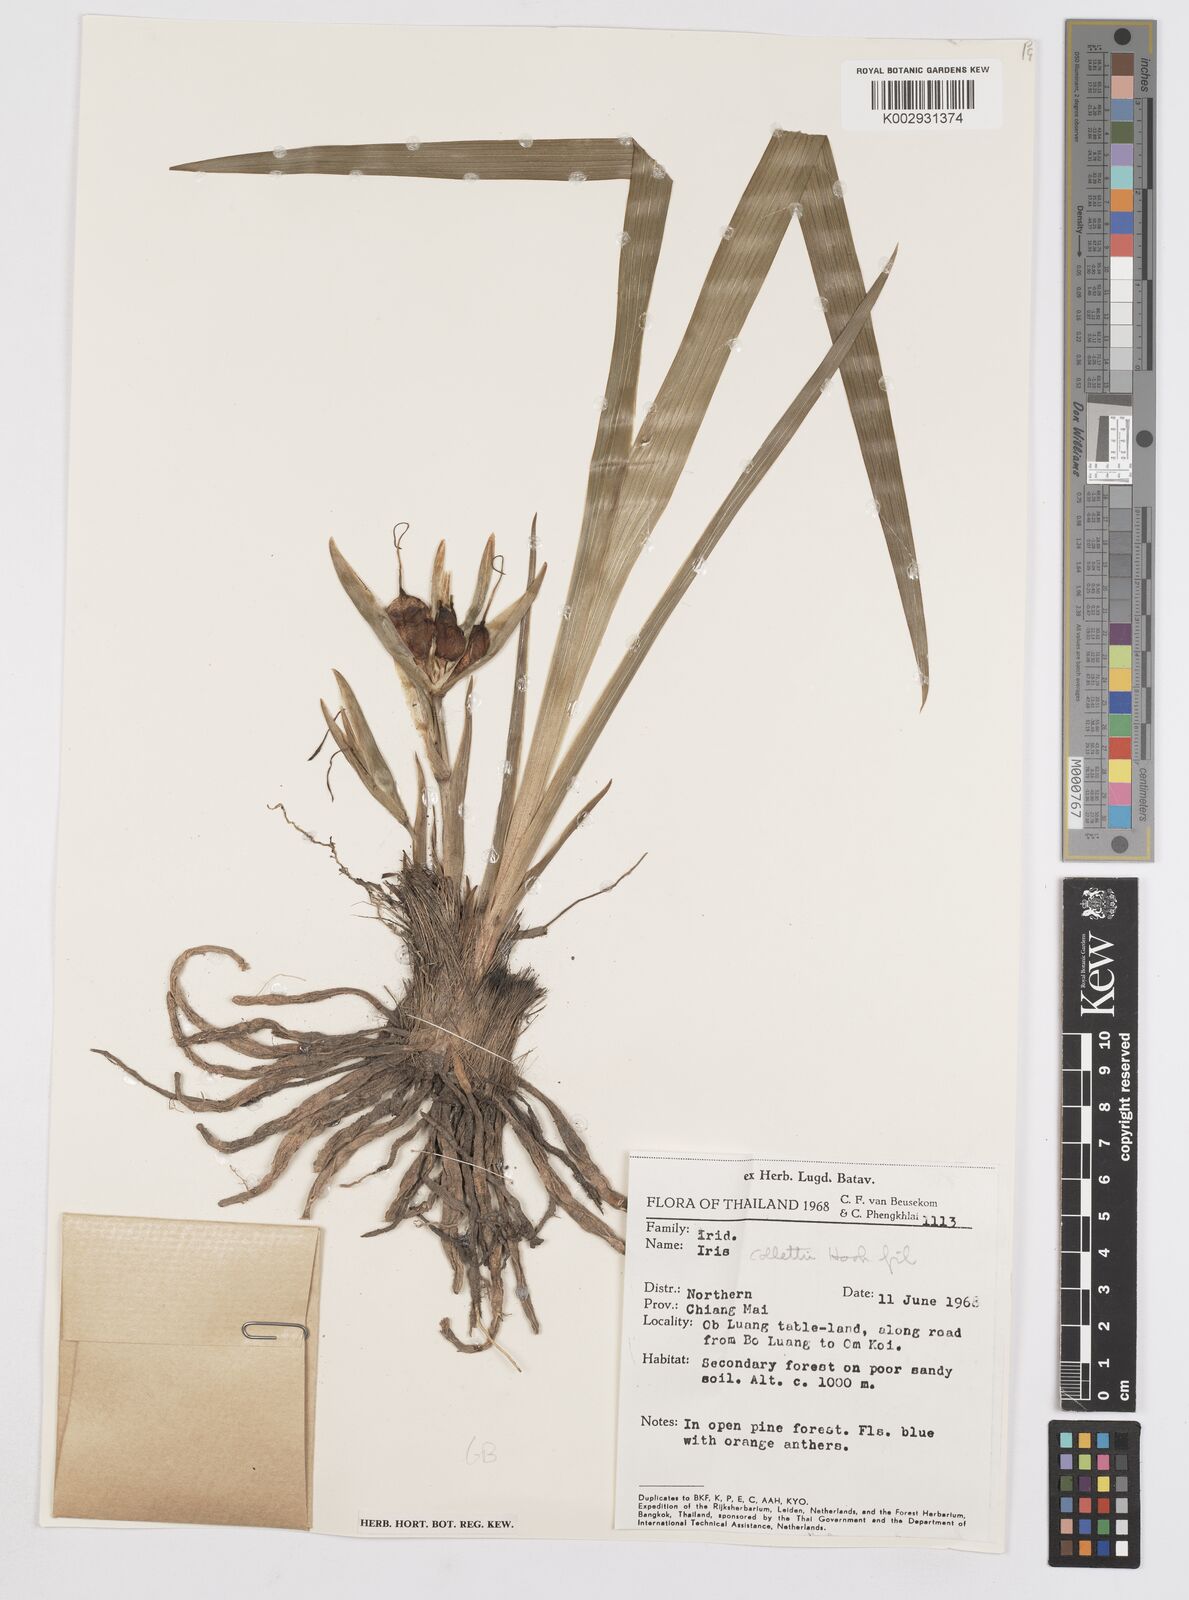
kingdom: Plantae
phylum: Tracheophyta
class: Liliopsida
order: Asparagales
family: Iridaceae
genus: Iris
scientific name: Iris collettii
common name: Plateau iris
